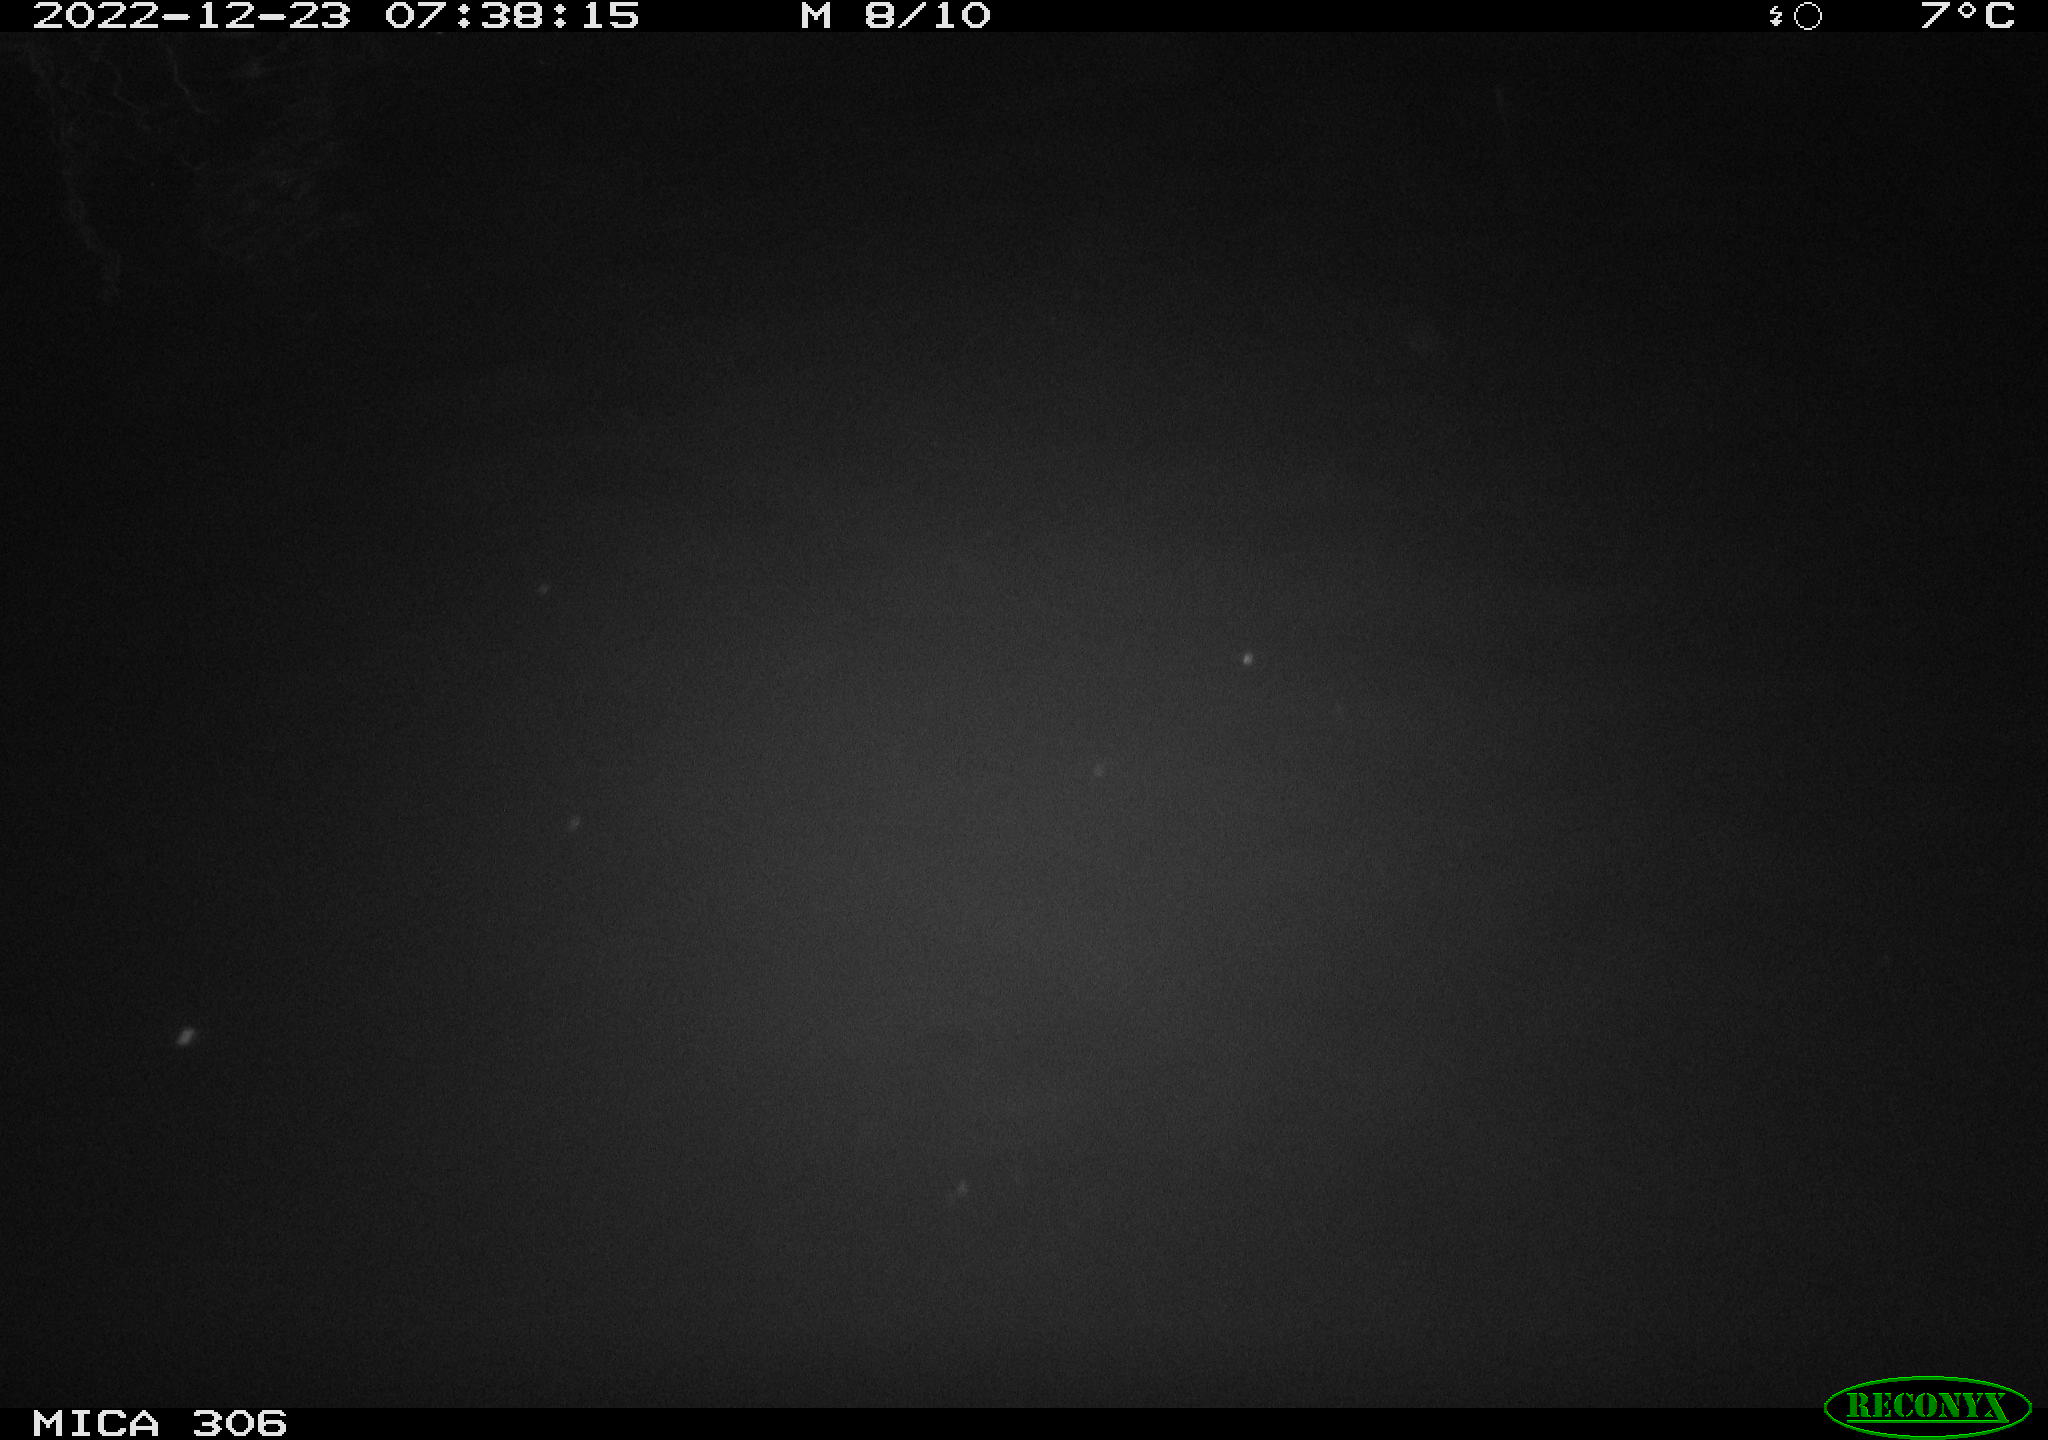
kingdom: Animalia
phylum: Chordata
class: Mammalia
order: Rodentia
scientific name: Rodentia
